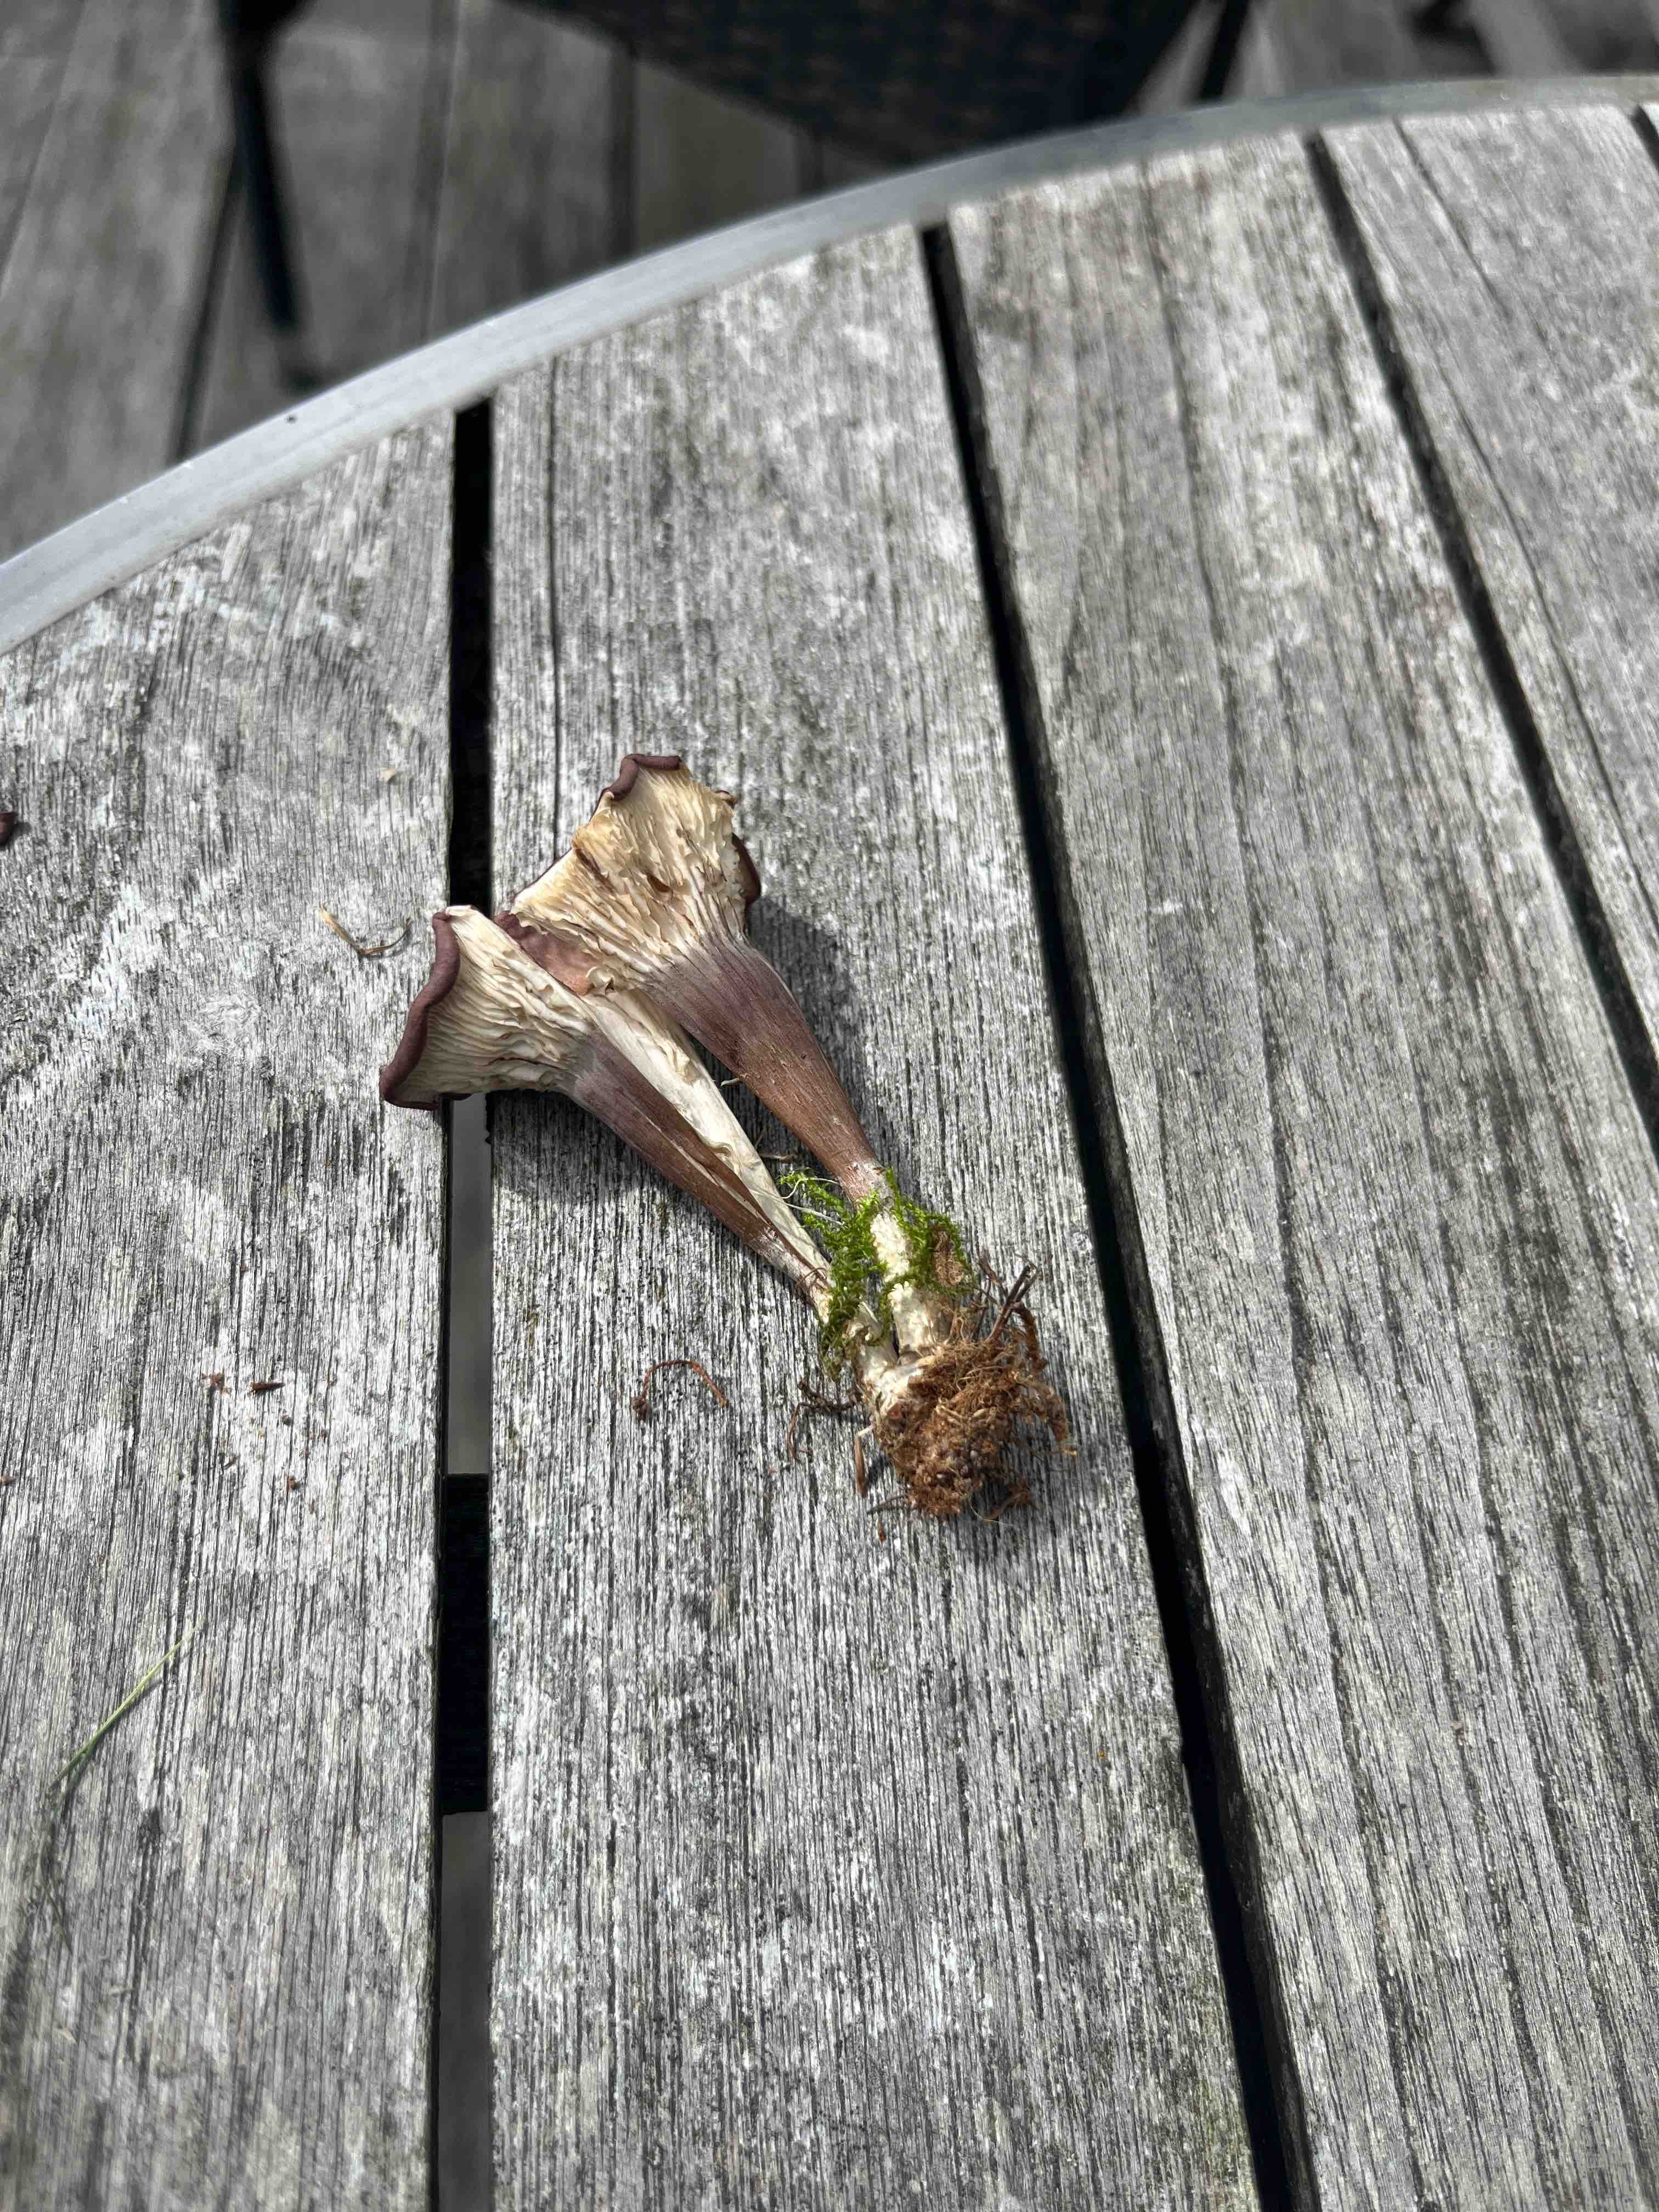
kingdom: Fungi
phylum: Basidiomycota
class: Agaricomycetes
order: Agaricales
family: Tricholomataceae
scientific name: Tricholomataceae
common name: ridderhatfamilien
